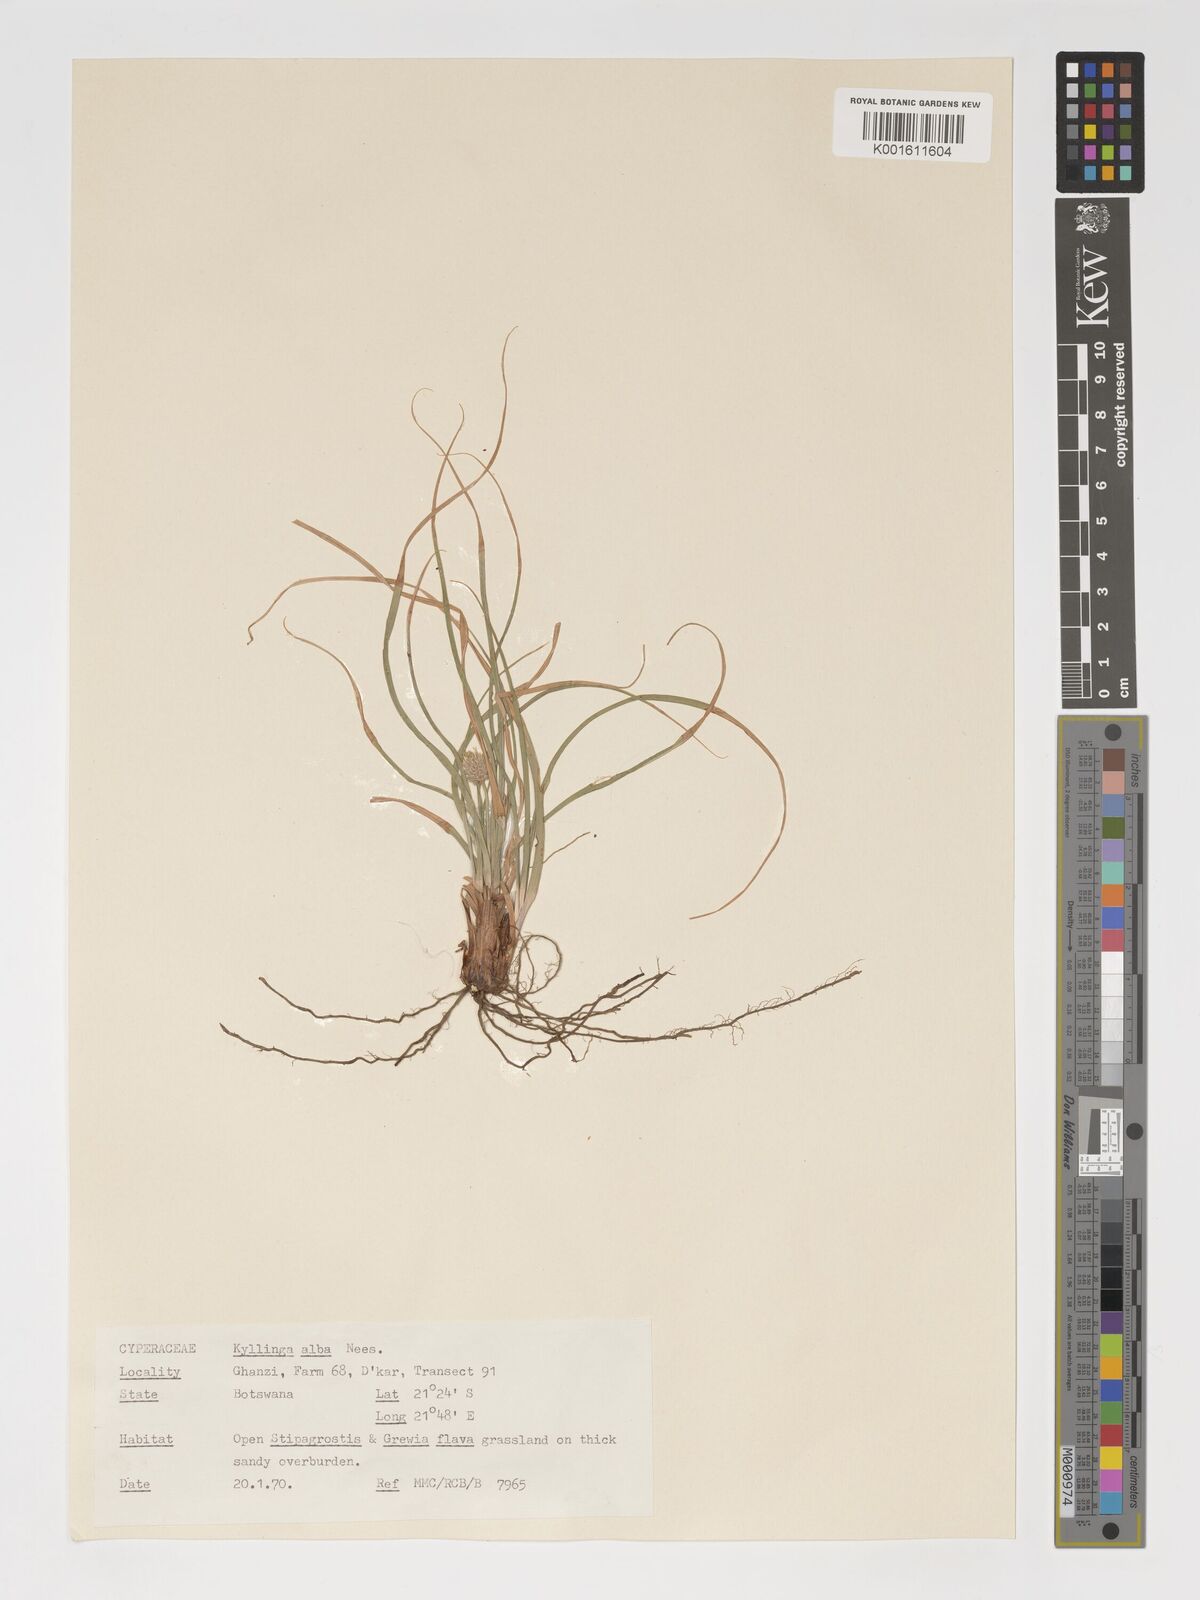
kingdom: Plantae
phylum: Tracheophyta
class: Liliopsida
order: Poales
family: Cyperaceae
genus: Cyperus
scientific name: Cyperus alatus
